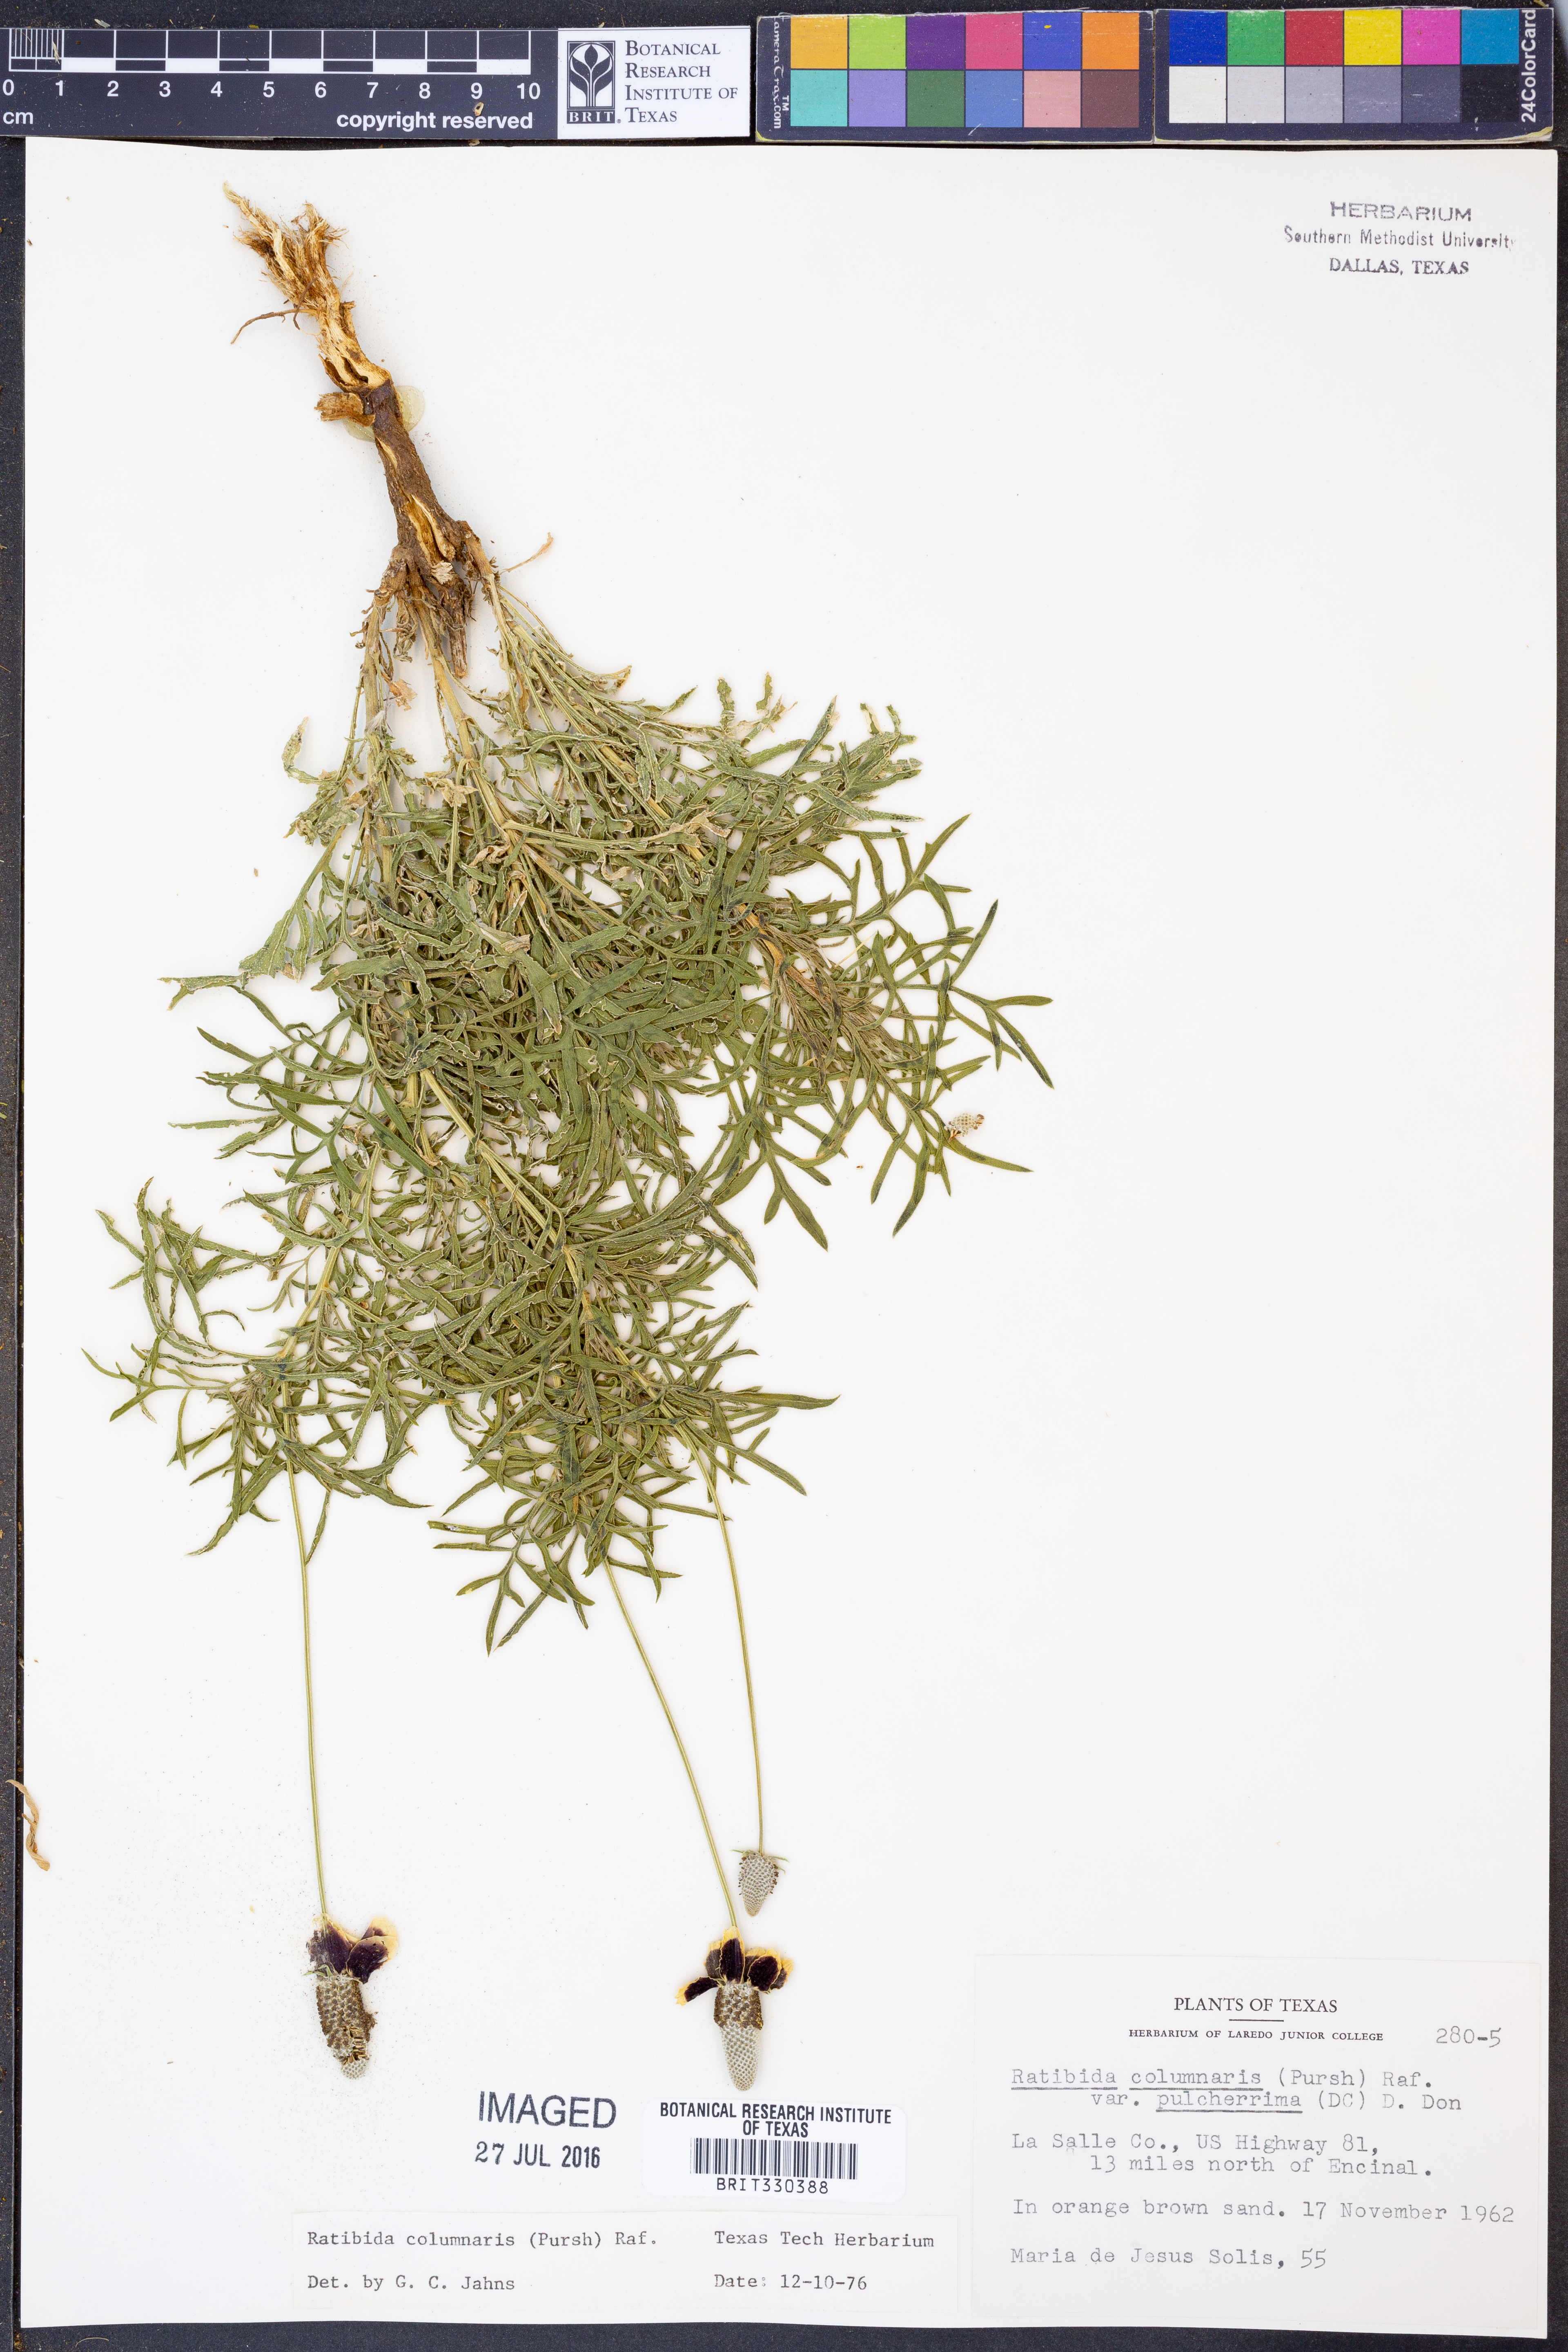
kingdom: Plantae
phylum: Tracheophyta
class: Magnoliopsida
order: Asterales
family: Asteraceae
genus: Ratibida
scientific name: Ratibida columnifera
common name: Prairie coneflower
